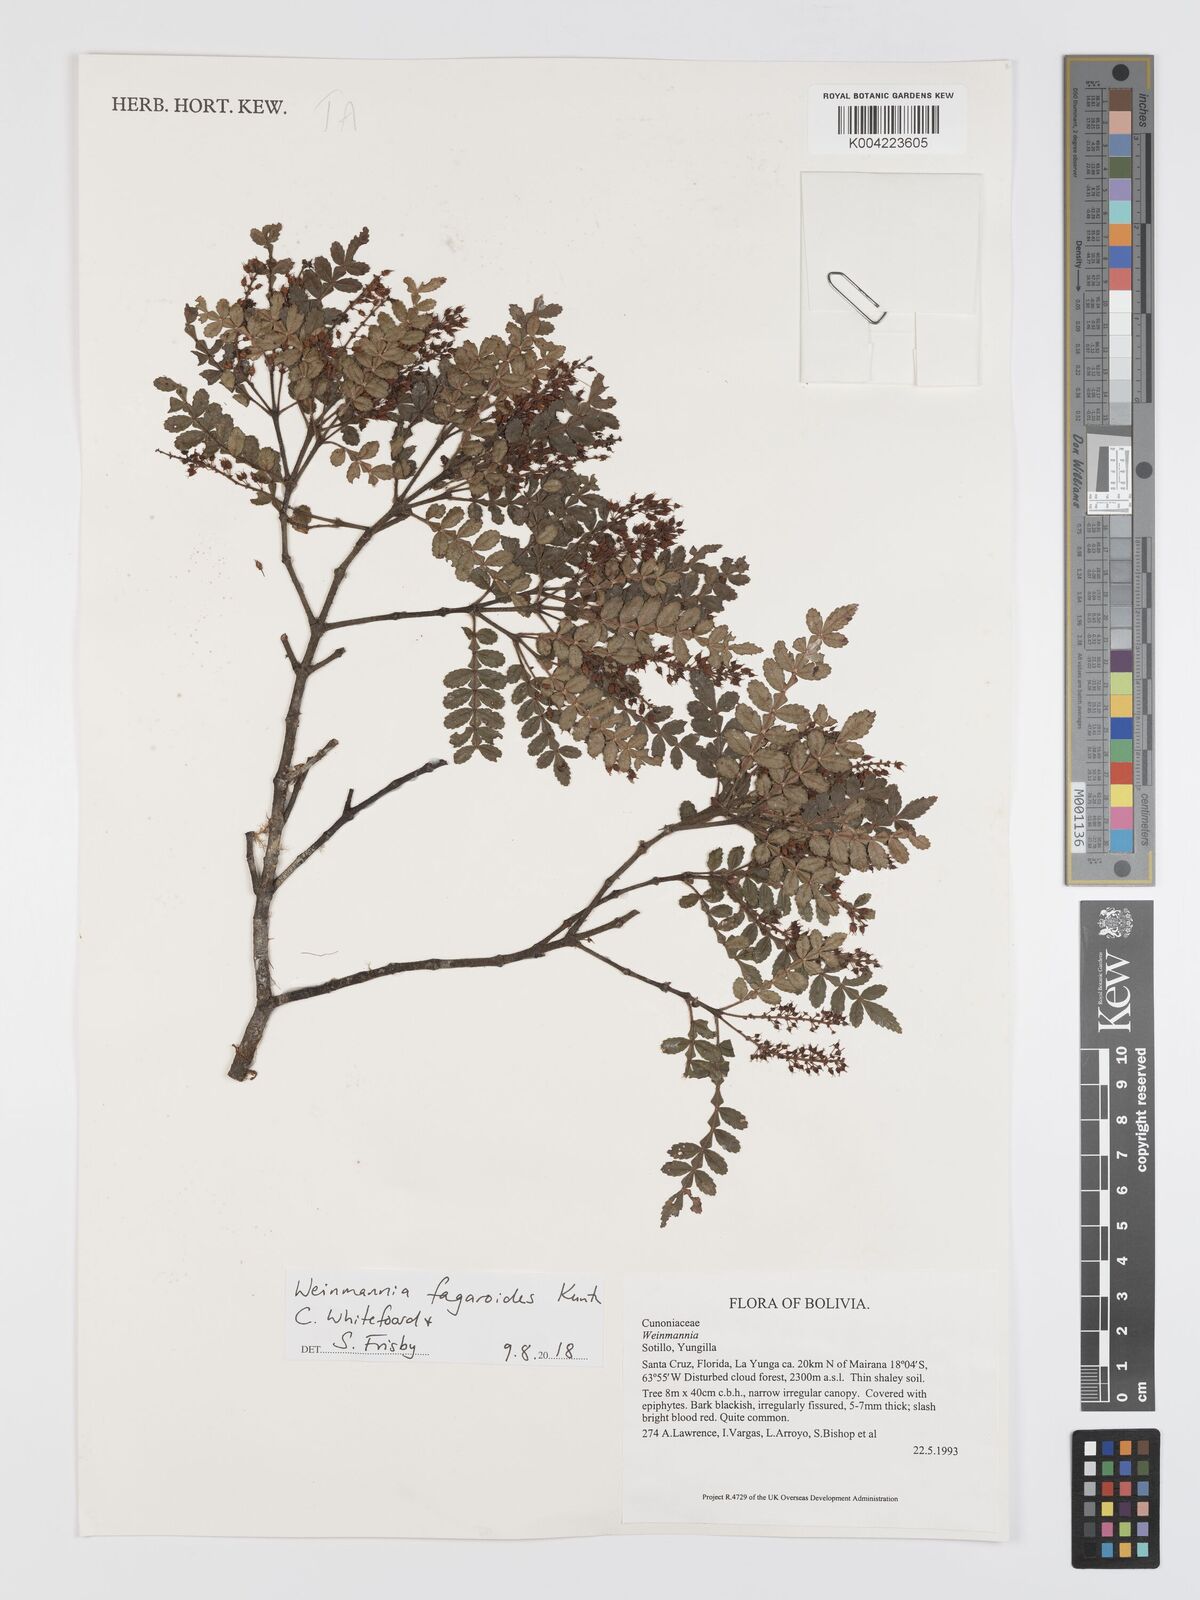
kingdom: Plantae
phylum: Tracheophyta
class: Magnoliopsida
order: Oxalidales
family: Cunoniaceae
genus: Weinmannia
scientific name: Weinmannia fagaroides
